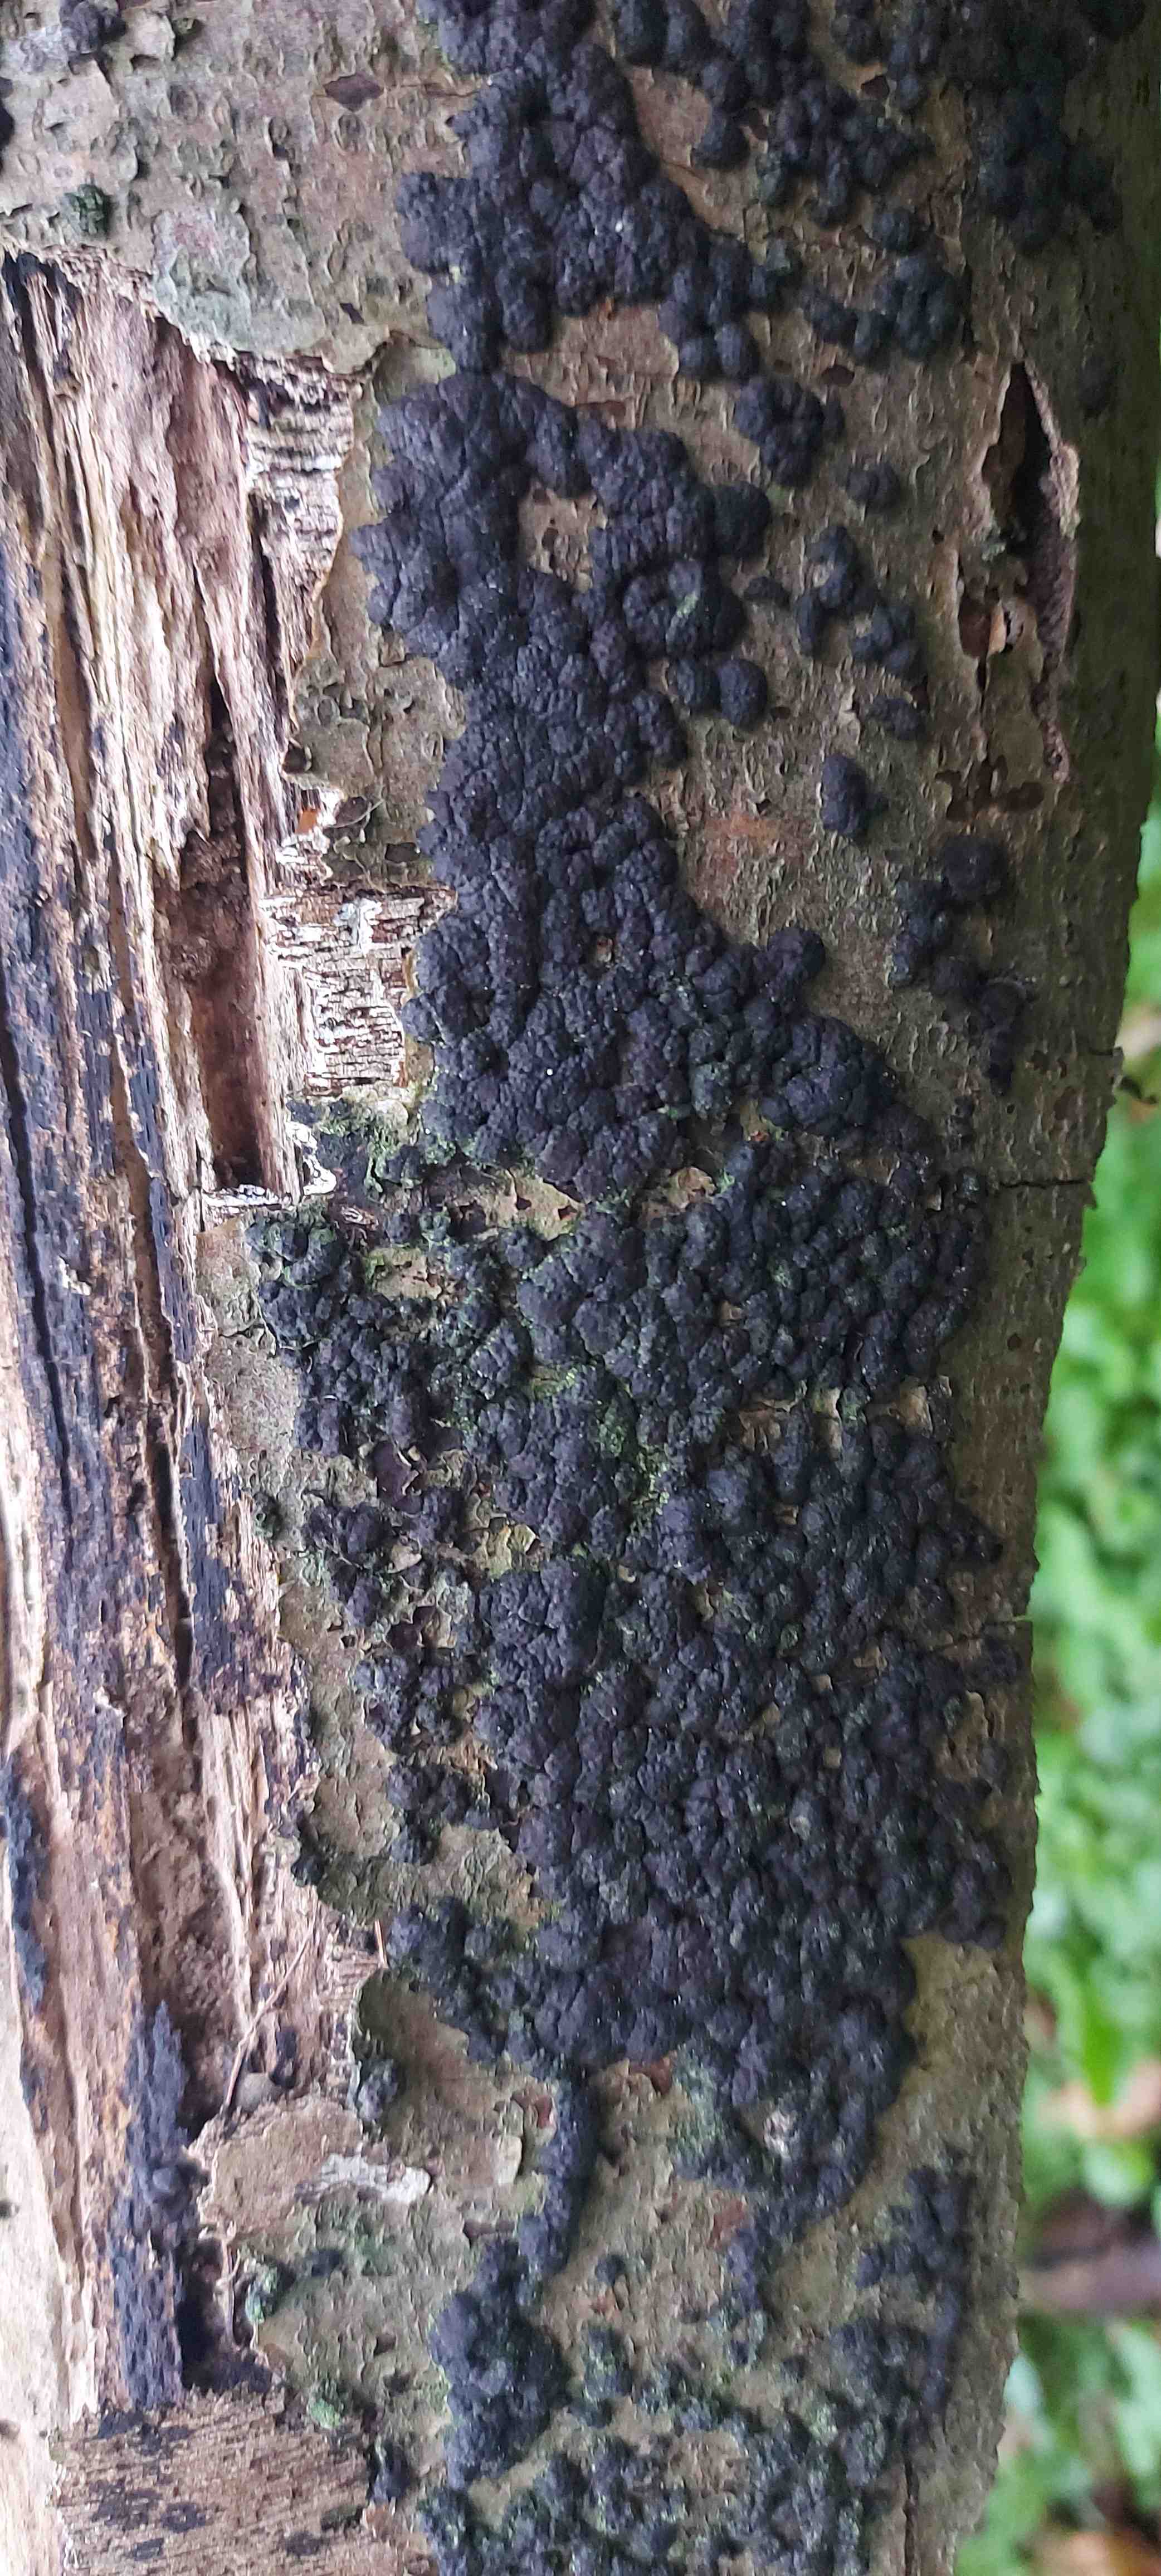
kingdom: Fungi
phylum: Ascomycota
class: Sordariomycetes
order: Xylariales
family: Hypoxylaceae
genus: Jackrogersella
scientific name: Jackrogersella cohaerens
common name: sammenflydende kulbær
